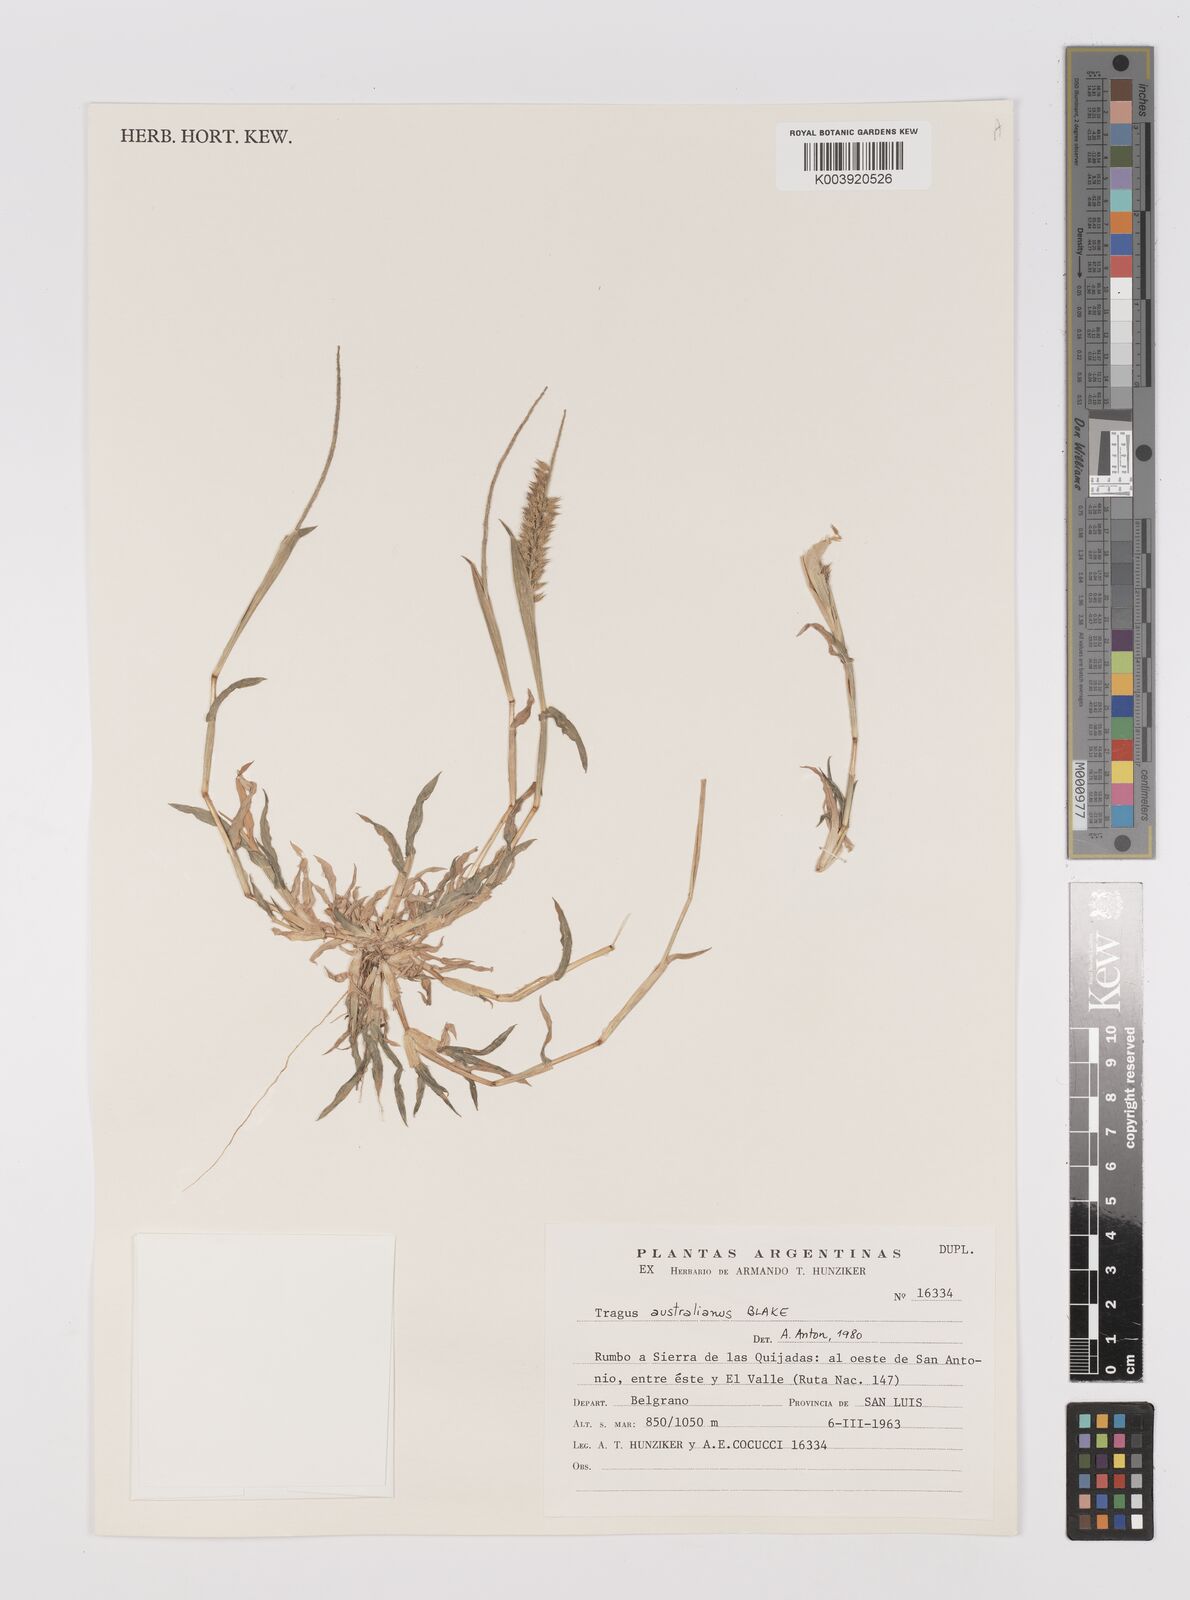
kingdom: Plantae
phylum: Tracheophyta
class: Liliopsida
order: Poales
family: Poaceae
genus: Tragus
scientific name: Tragus australianus
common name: Australian bur-grass
